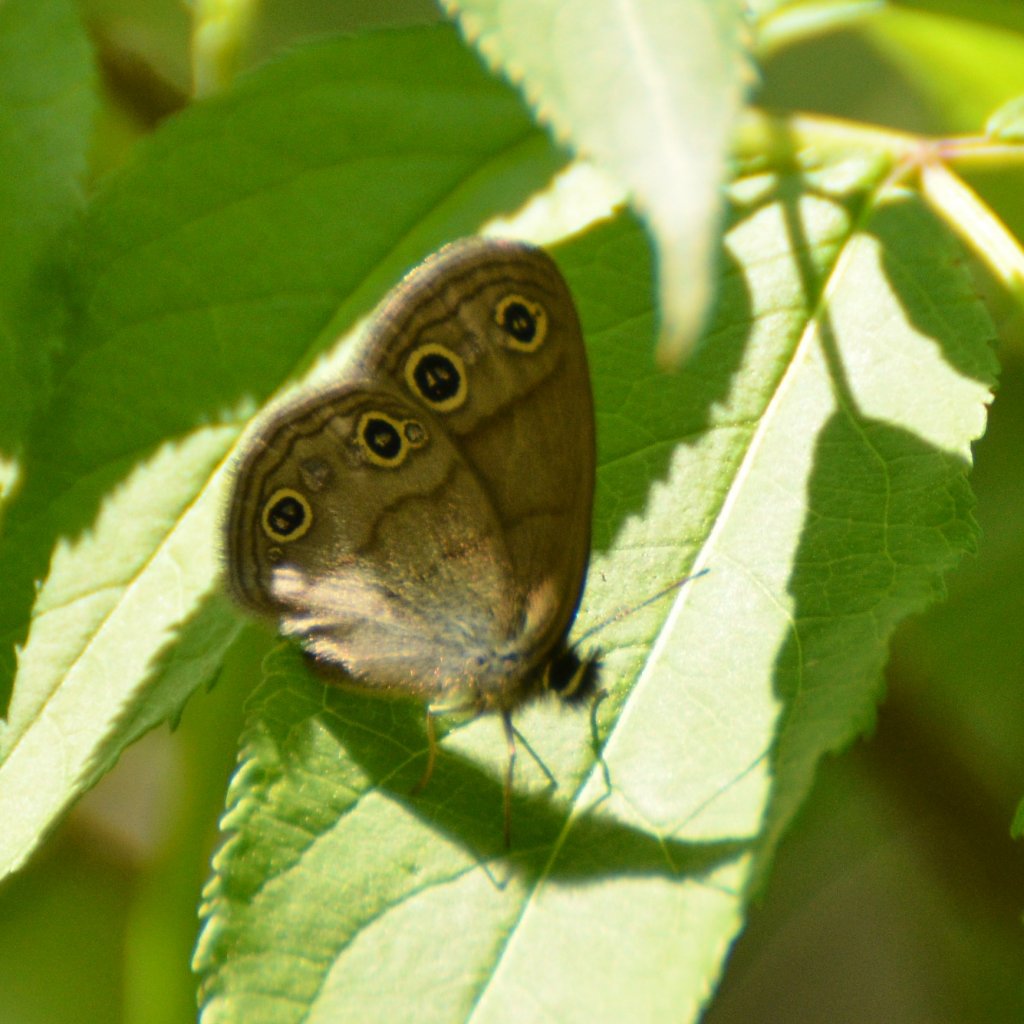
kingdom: Animalia
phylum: Arthropoda
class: Insecta
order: Lepidoptera
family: Nymphalidae
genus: Euptychia
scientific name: Euptychia cymela
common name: Little Wood Satyr
